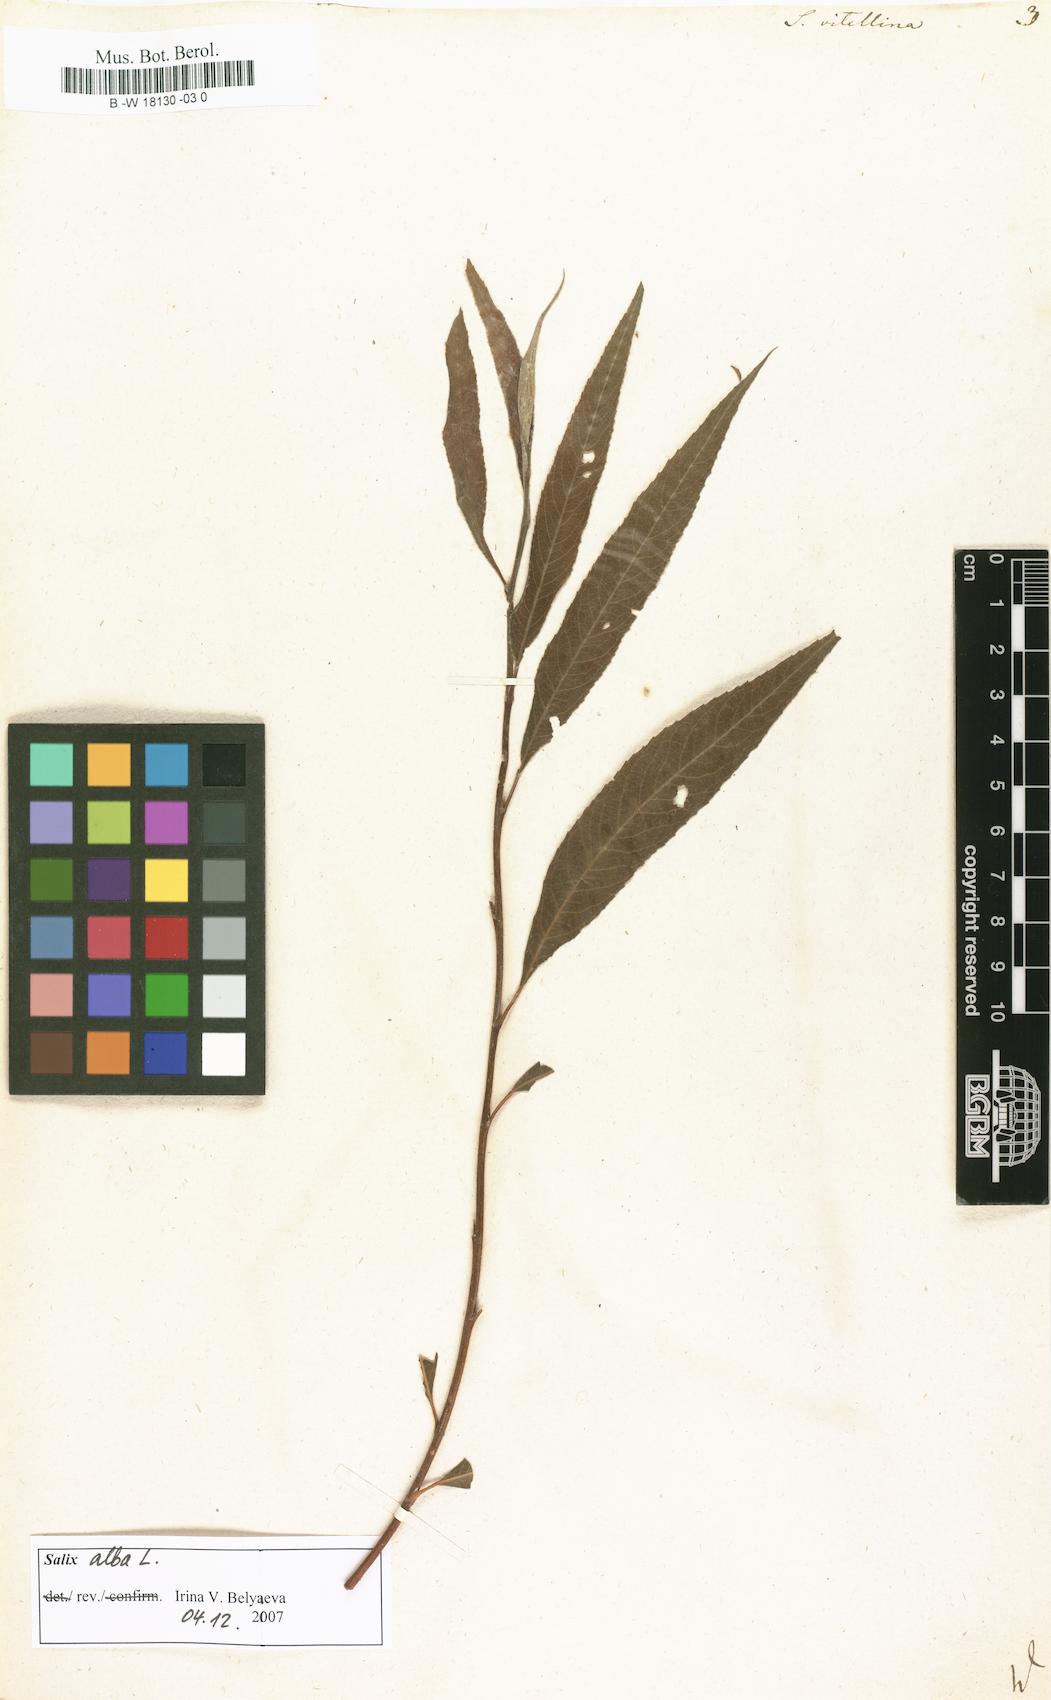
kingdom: Plantae
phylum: Tracheophyta
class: Magnoliopsida
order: Malpighiales
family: Salicaceae
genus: Salix
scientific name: Salix alba
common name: White willow
